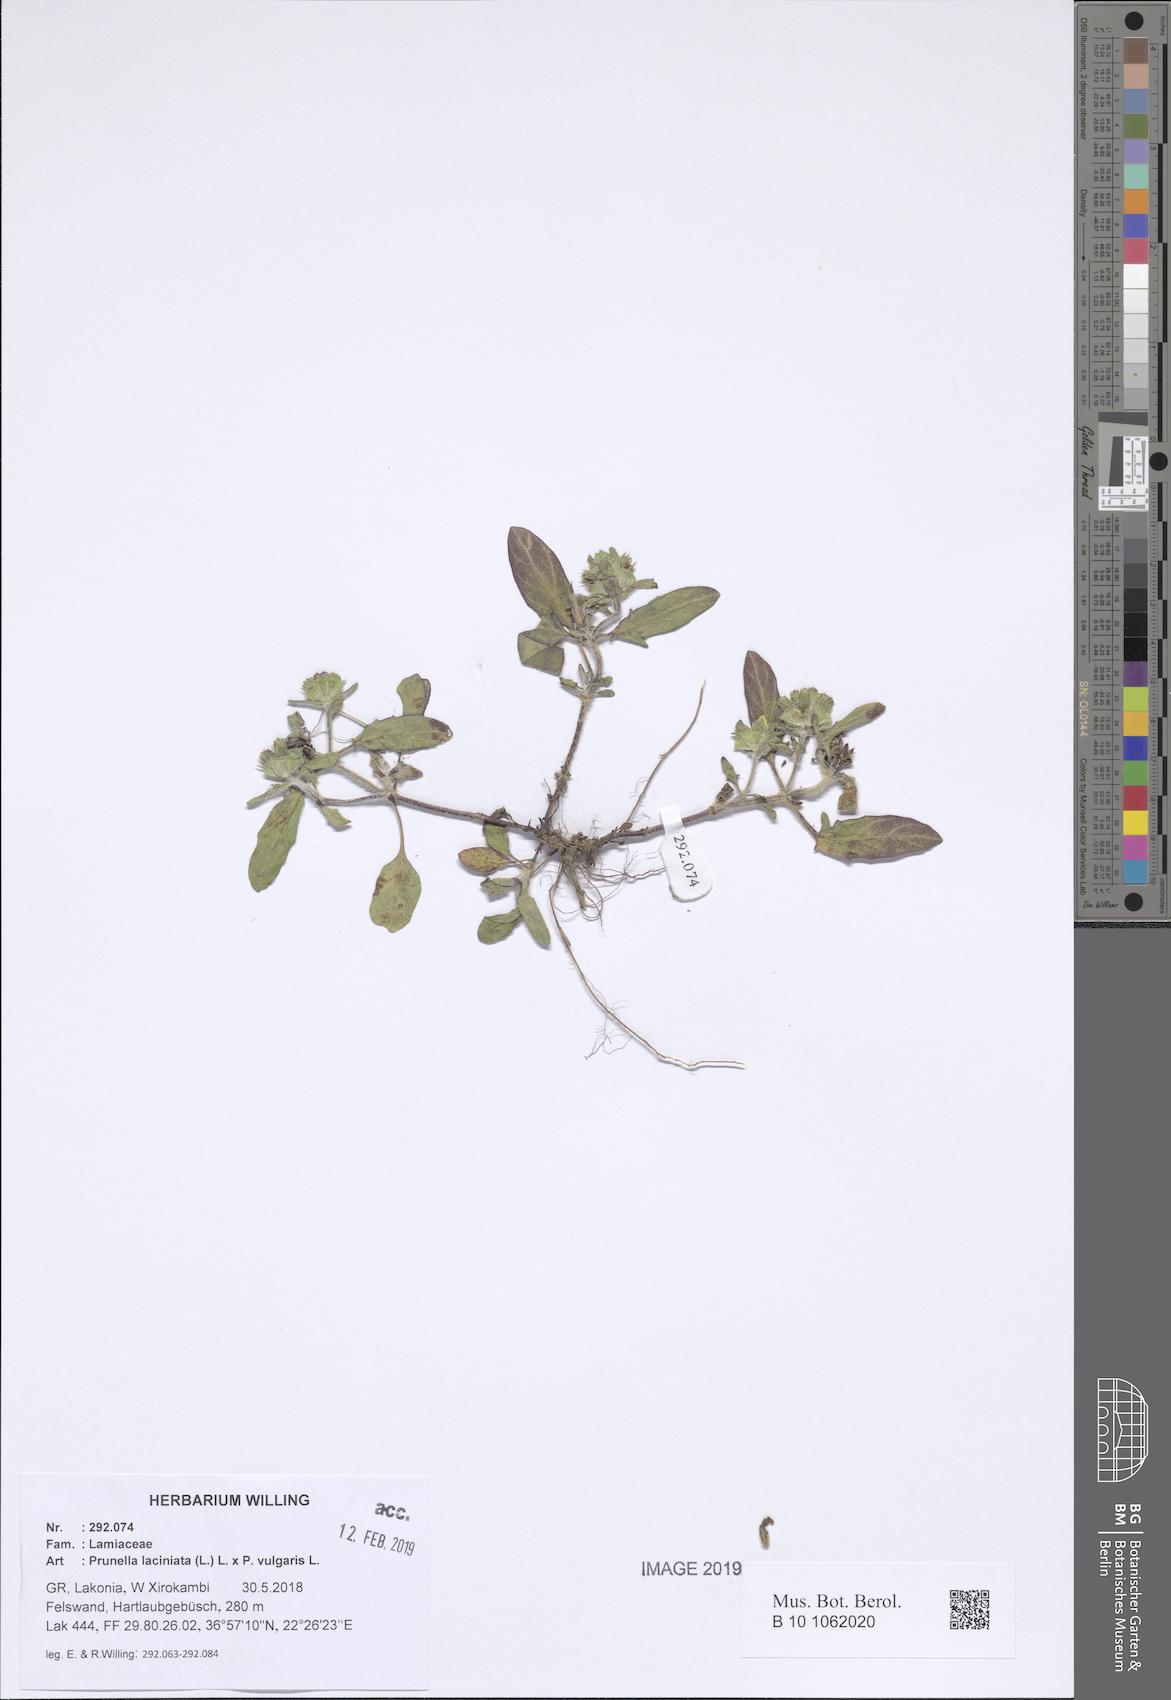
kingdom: Plantae
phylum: Tracheophyta
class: Magnoliopsida
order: Lamiales
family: Lamiaceae
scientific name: Lamiaceae
